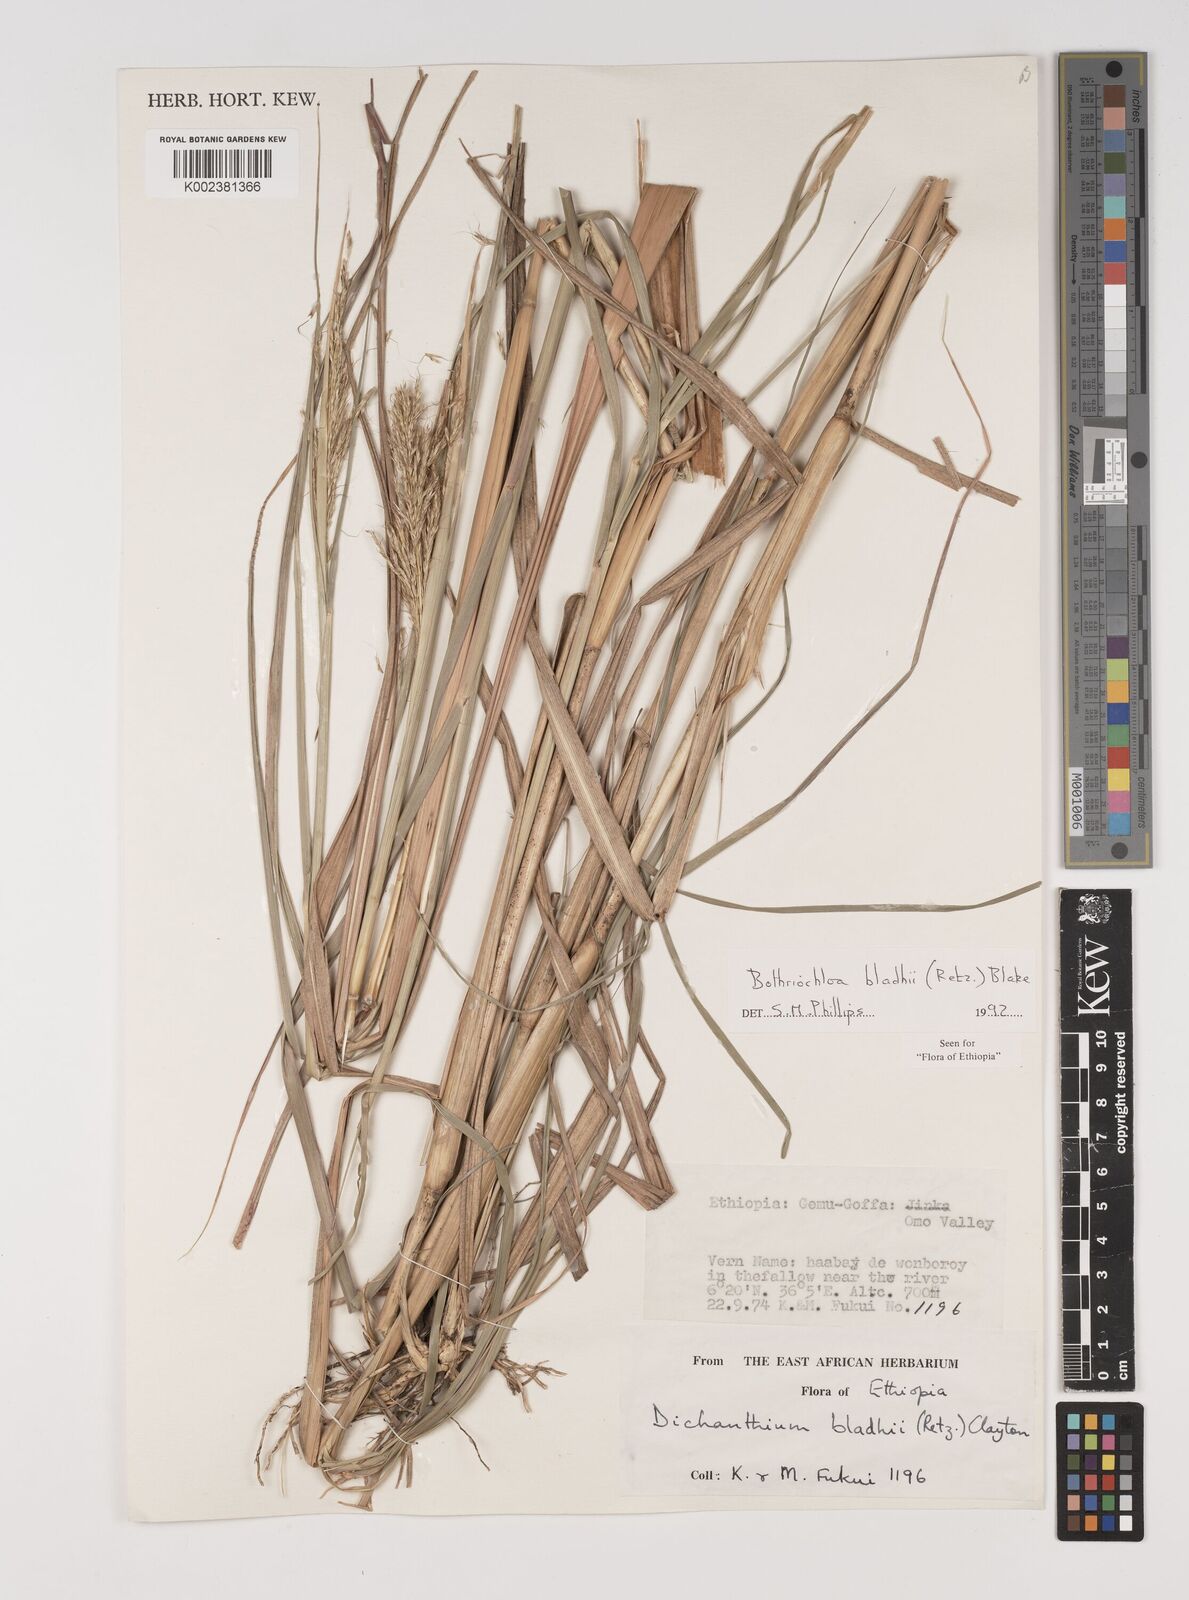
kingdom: Plantae
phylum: Tracheophyta
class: Liliopsida
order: Poales
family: Poaceae
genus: Bothriochloa
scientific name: Bothriochloa bladhii
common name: Caucasian bluestem
